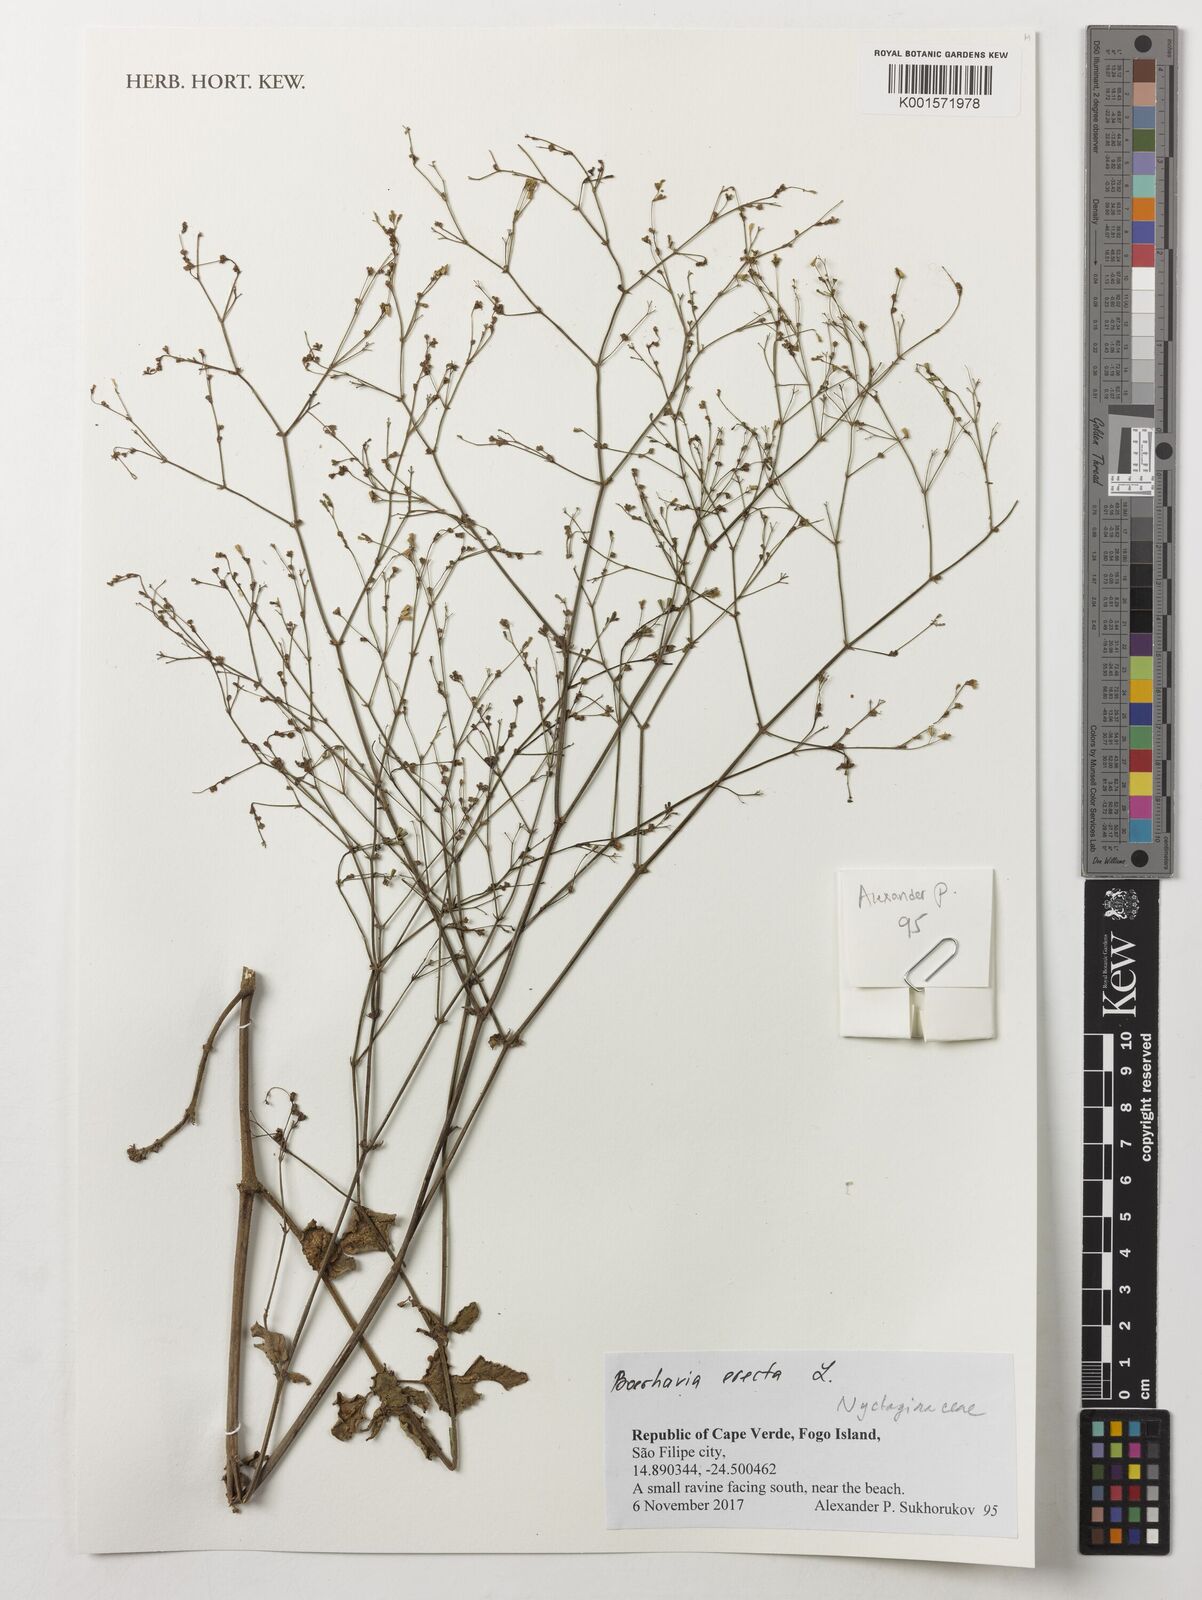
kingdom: Plantae
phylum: Tracheophyta
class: Magnoliopsida
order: Caryophyllales
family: Nyctaginaceae
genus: Boerhavia
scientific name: Boerhavia erecta
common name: Erect spiderling
